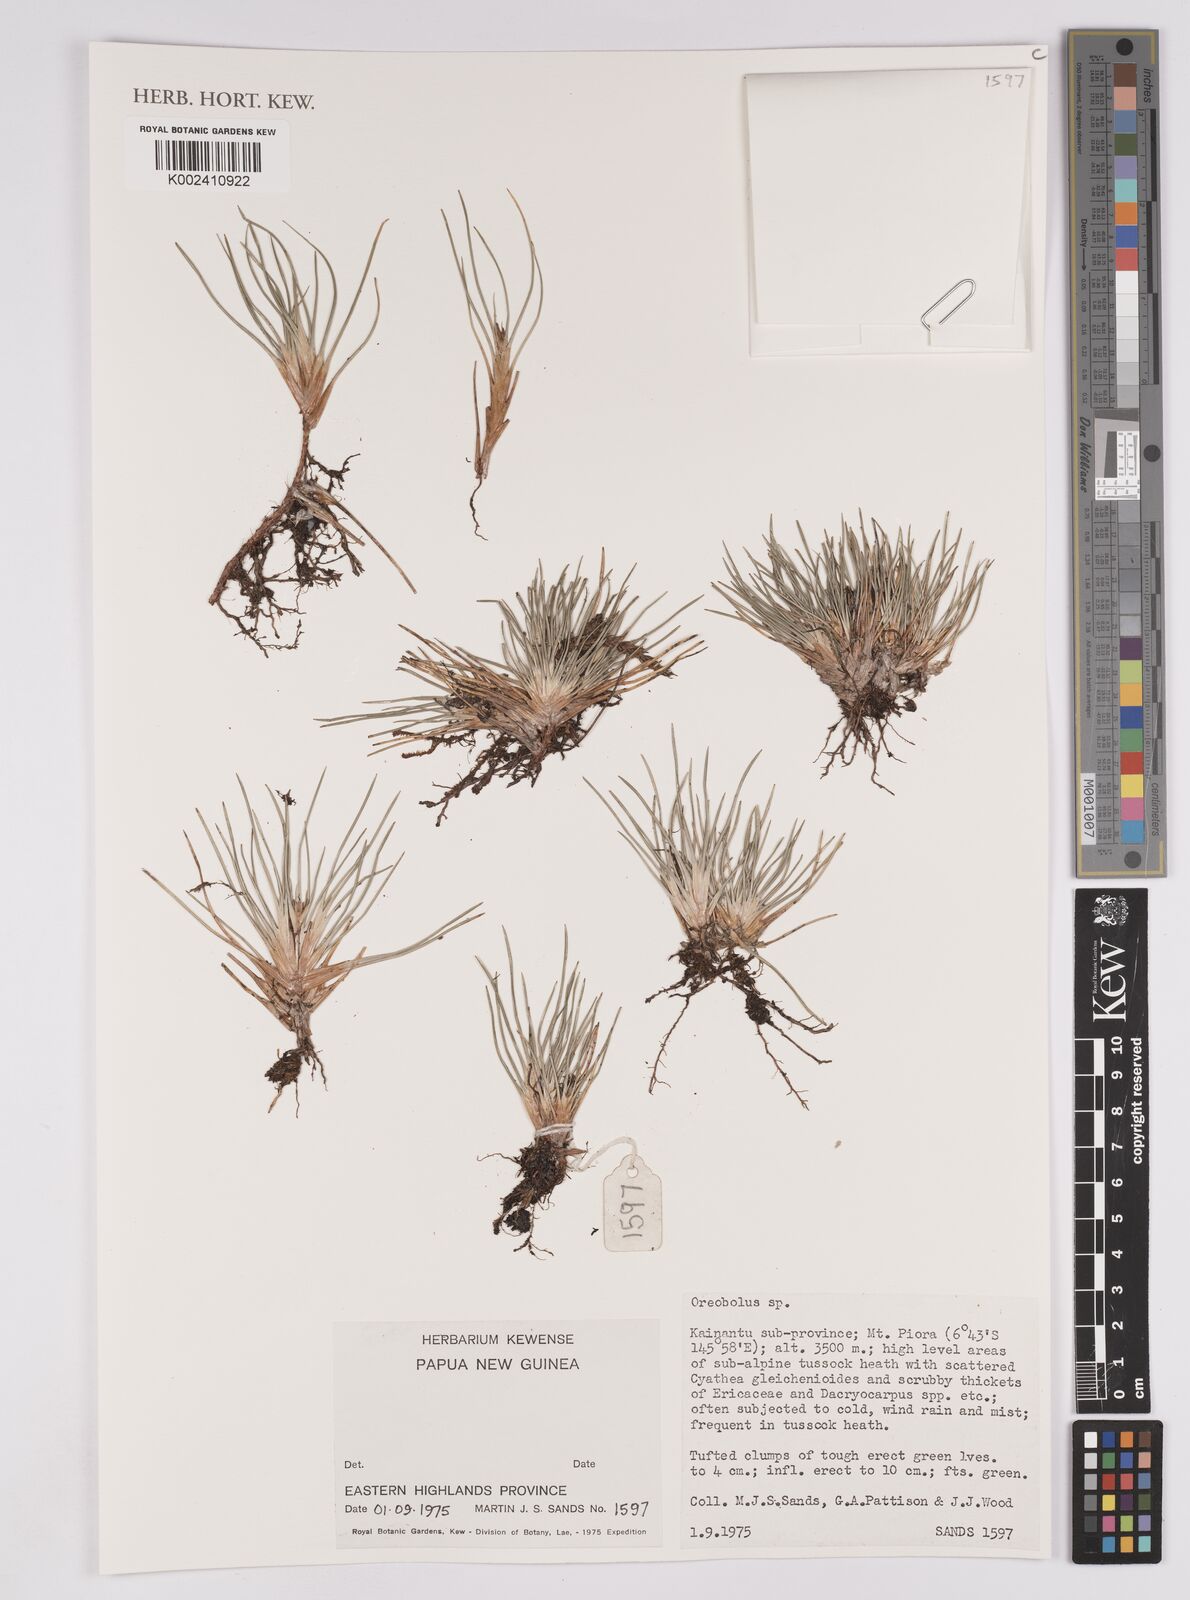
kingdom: Plantae
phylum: Tracheophyta
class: Liliopsida
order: Poales
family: Cyperaceae
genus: Oreobolus
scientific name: Oreobolus
